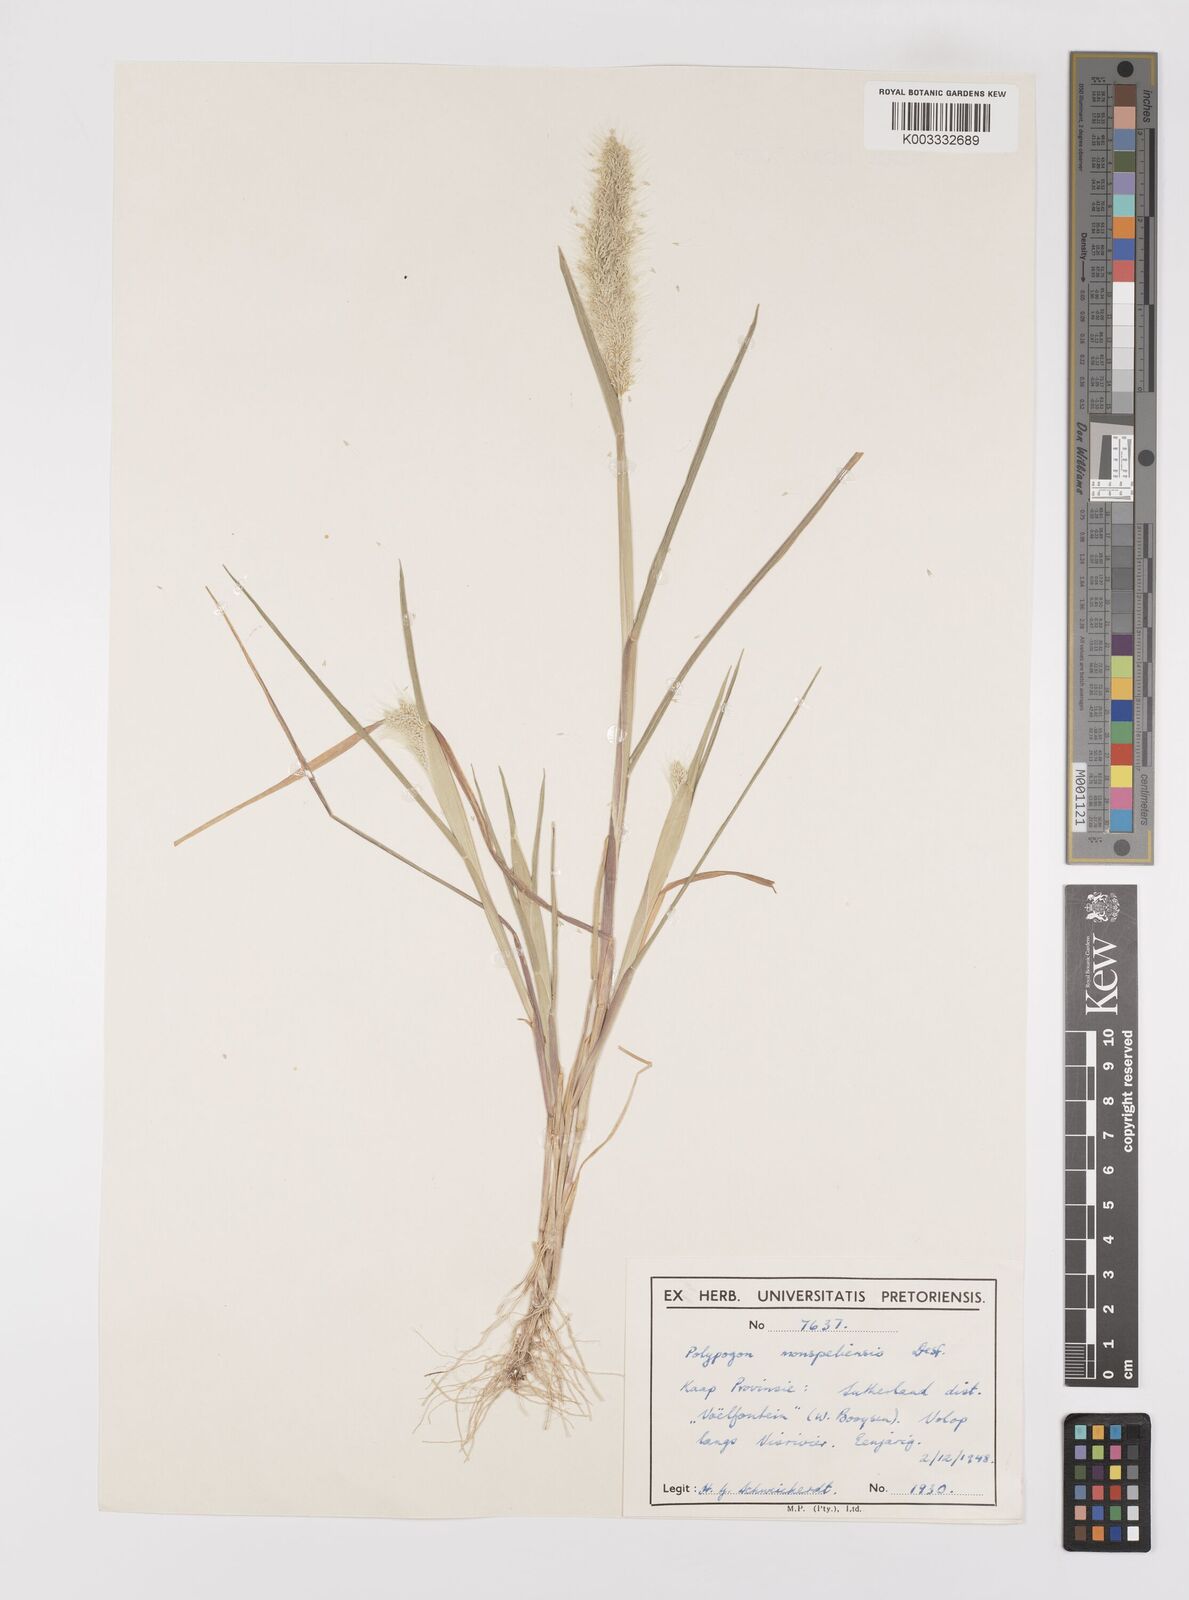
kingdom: Plantae
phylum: Tracheophyta
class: Liliopsida
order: Poales
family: Poaceae
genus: Polypogon
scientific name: Polypogon monspeliensis
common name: Annual rabbitsfoot grass
